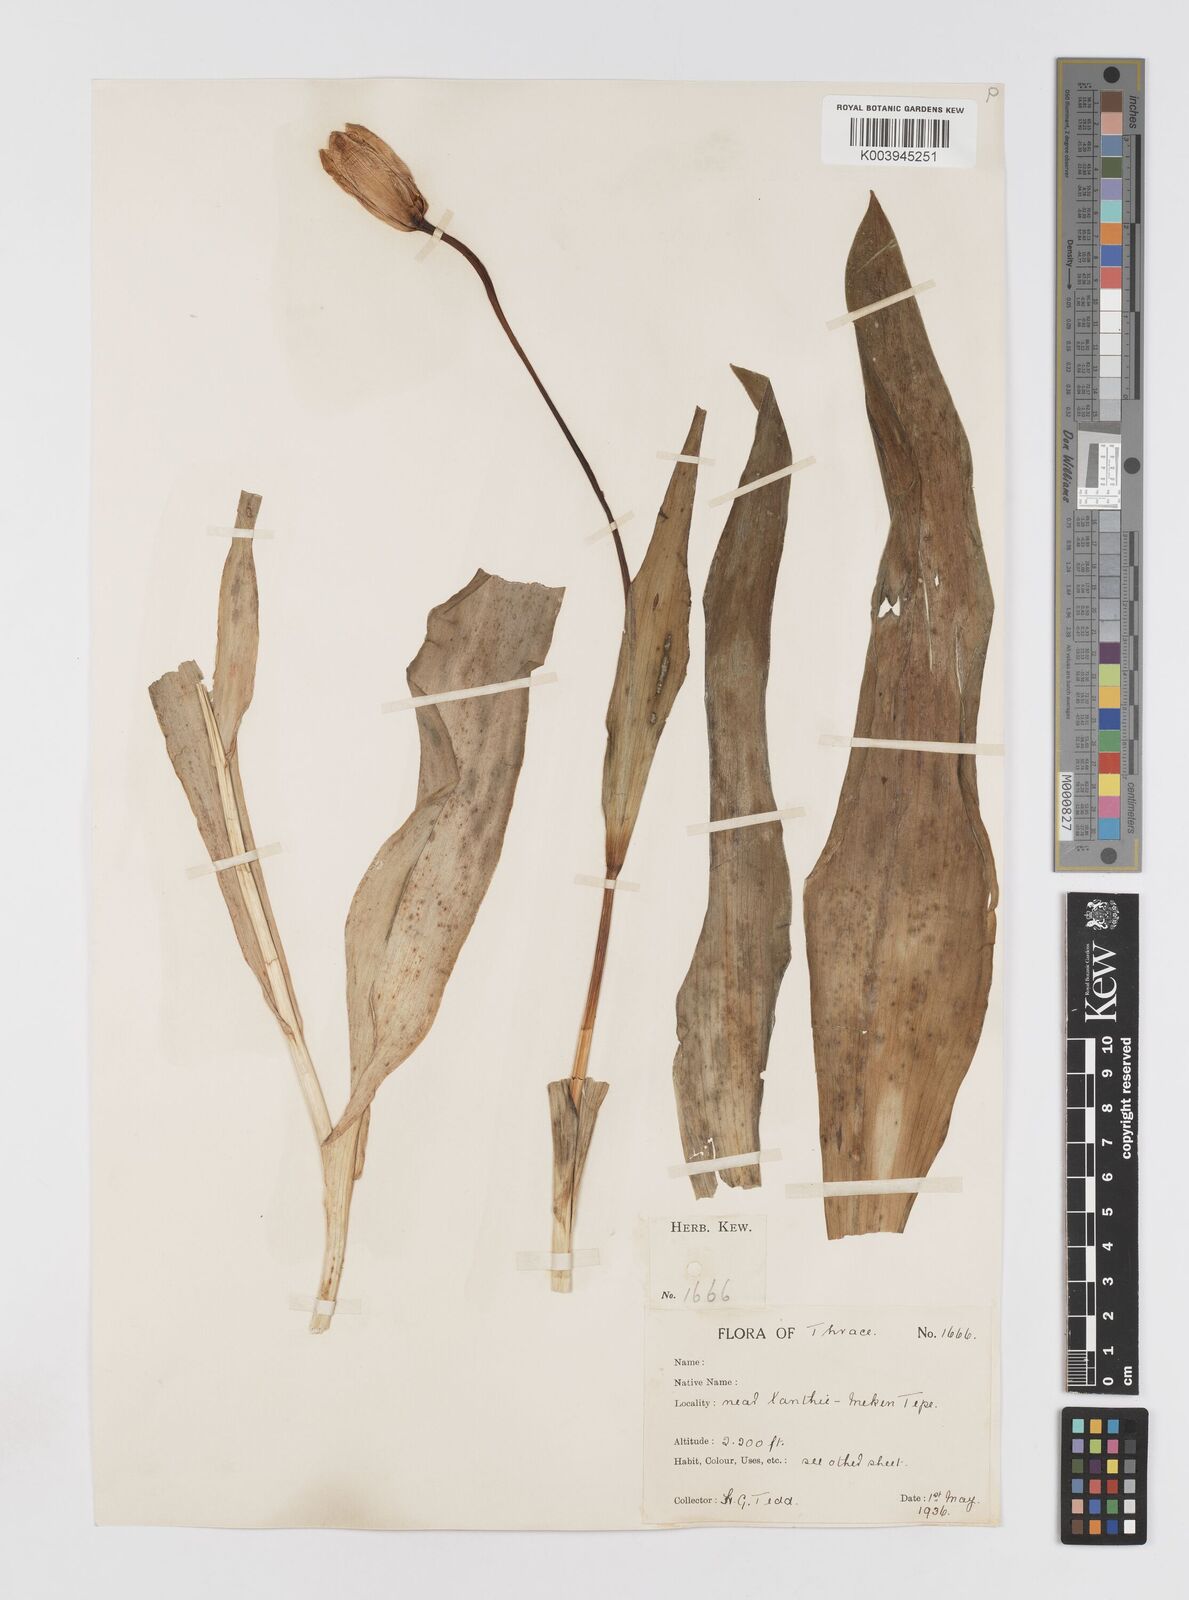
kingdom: Plantae
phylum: Tracheophyta
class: Liliopsida
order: Liliales
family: Liliaceae
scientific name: Liliaceae
